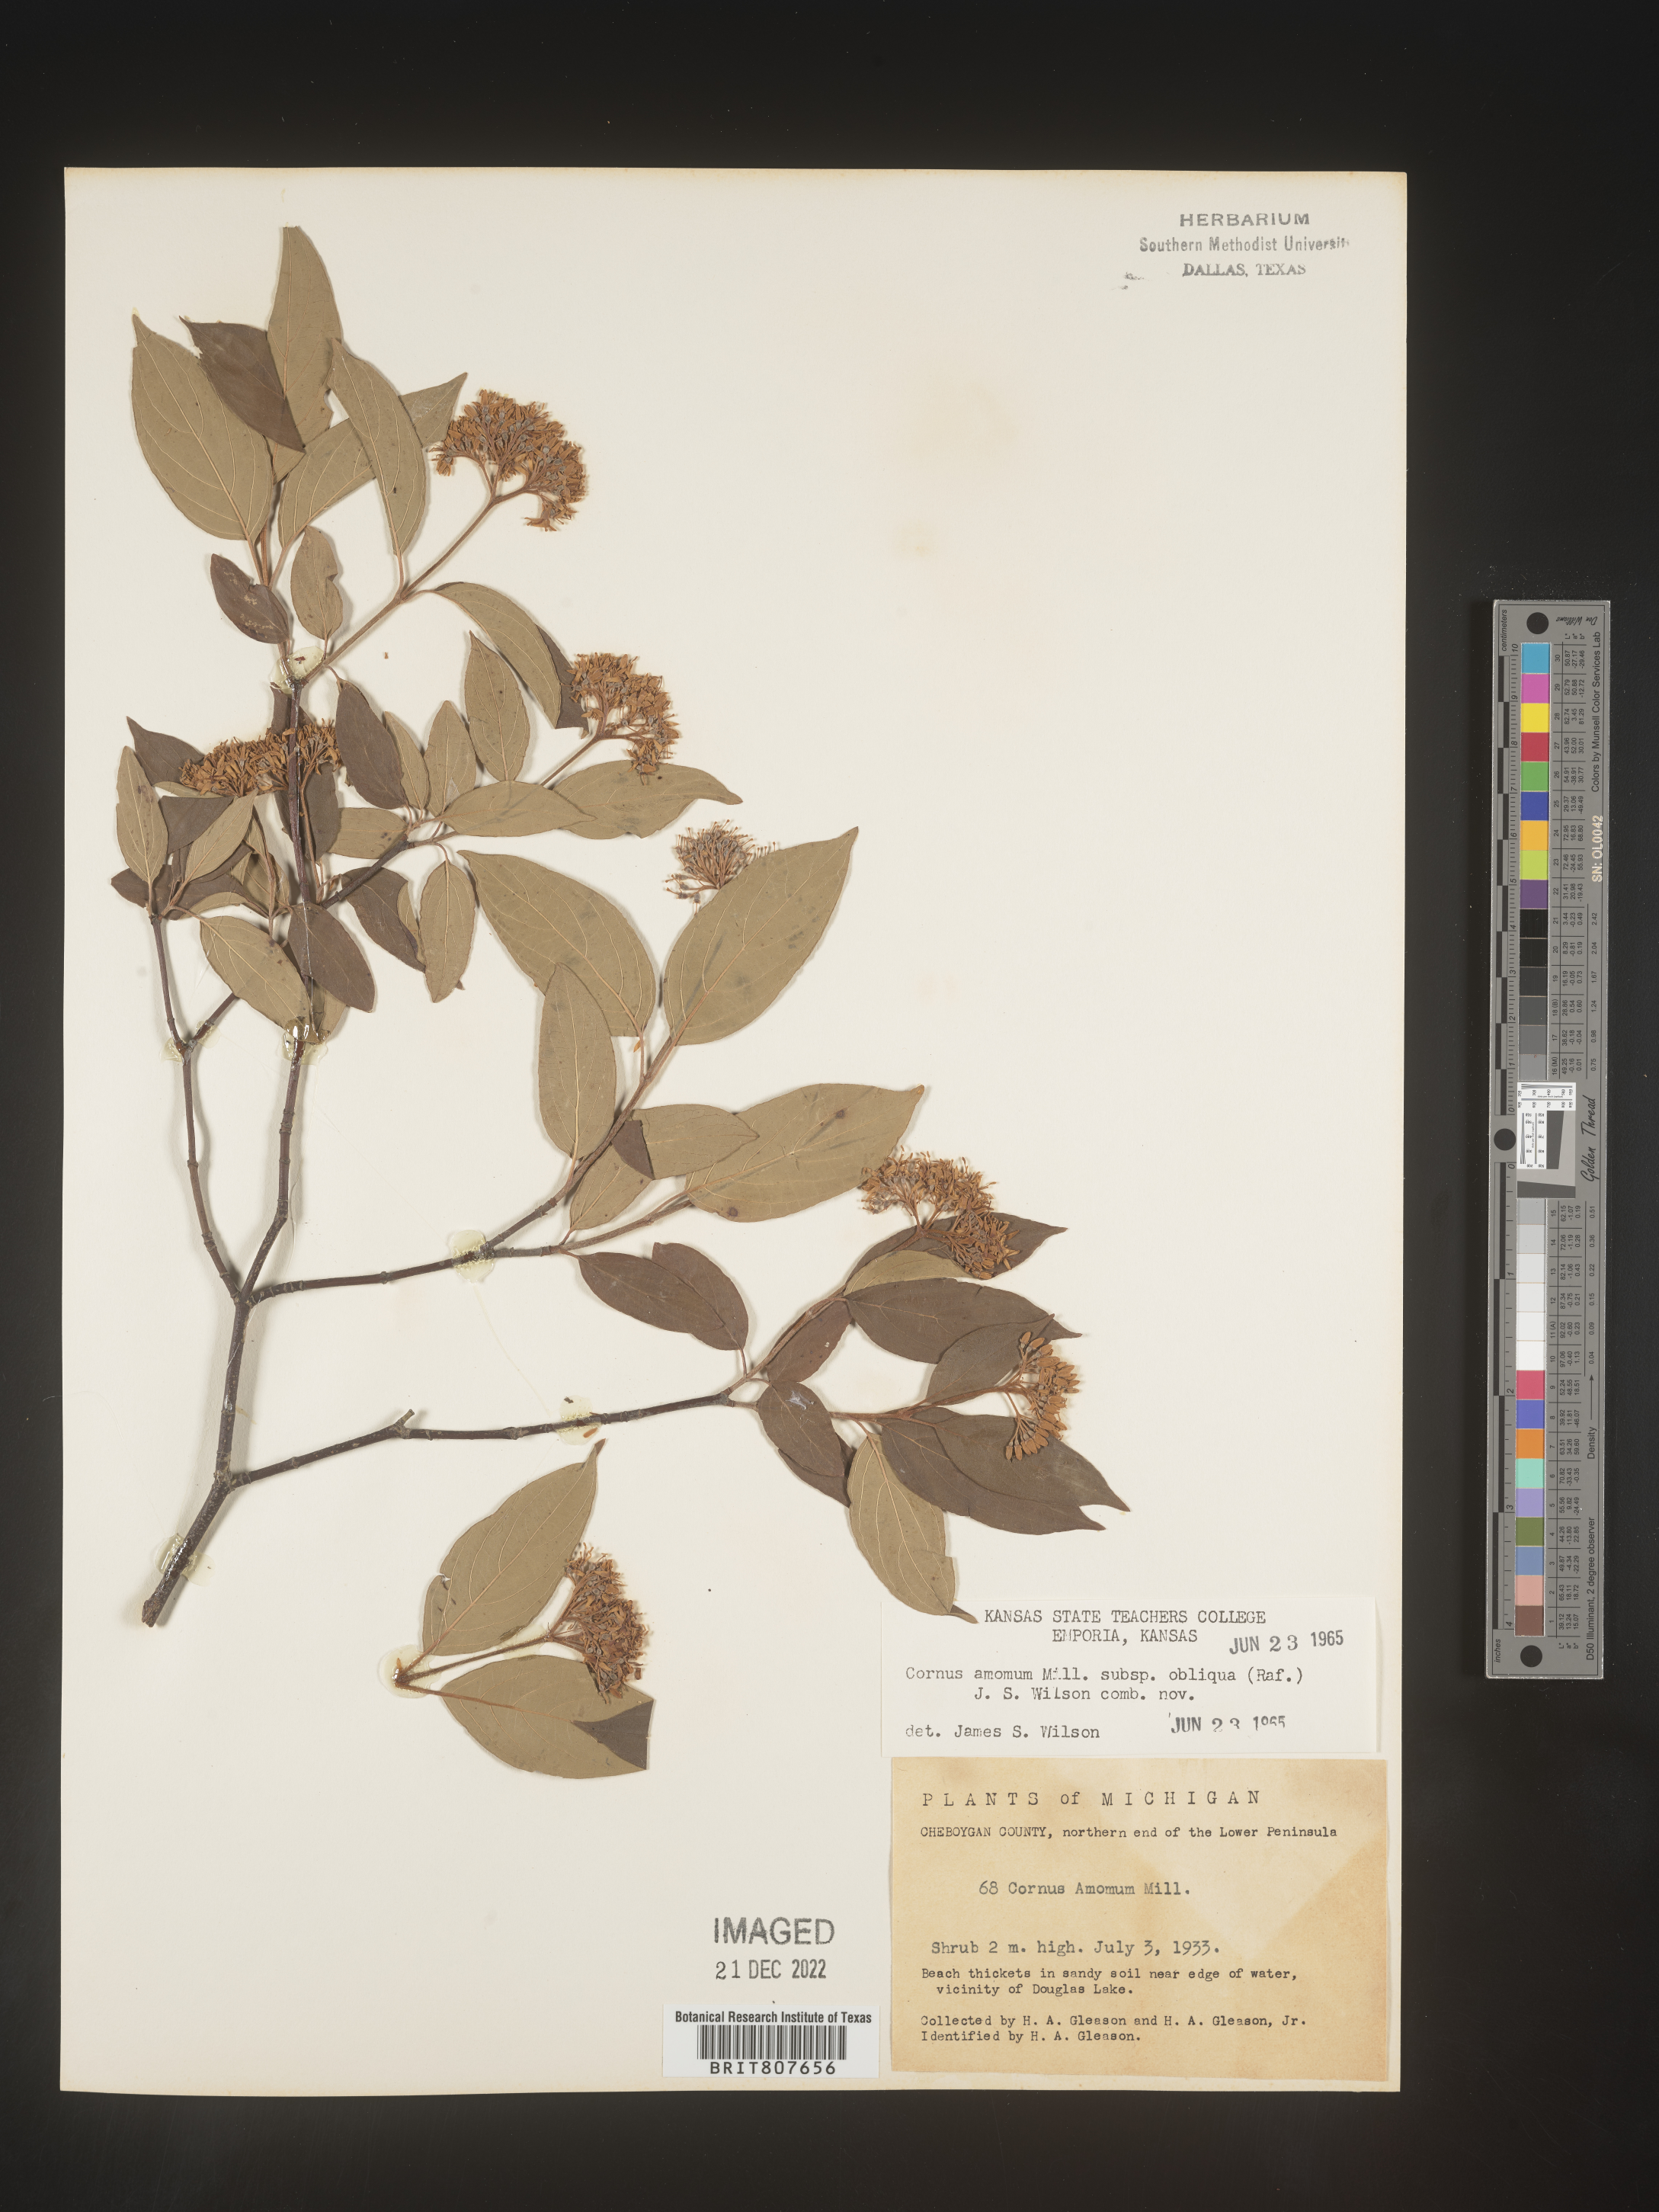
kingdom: Plantae
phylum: Tracheophyta
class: Magnoliopsida
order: Cornales
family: Cornaceae
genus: Cornus
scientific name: Cornus obliqua
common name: Pale dogwood
